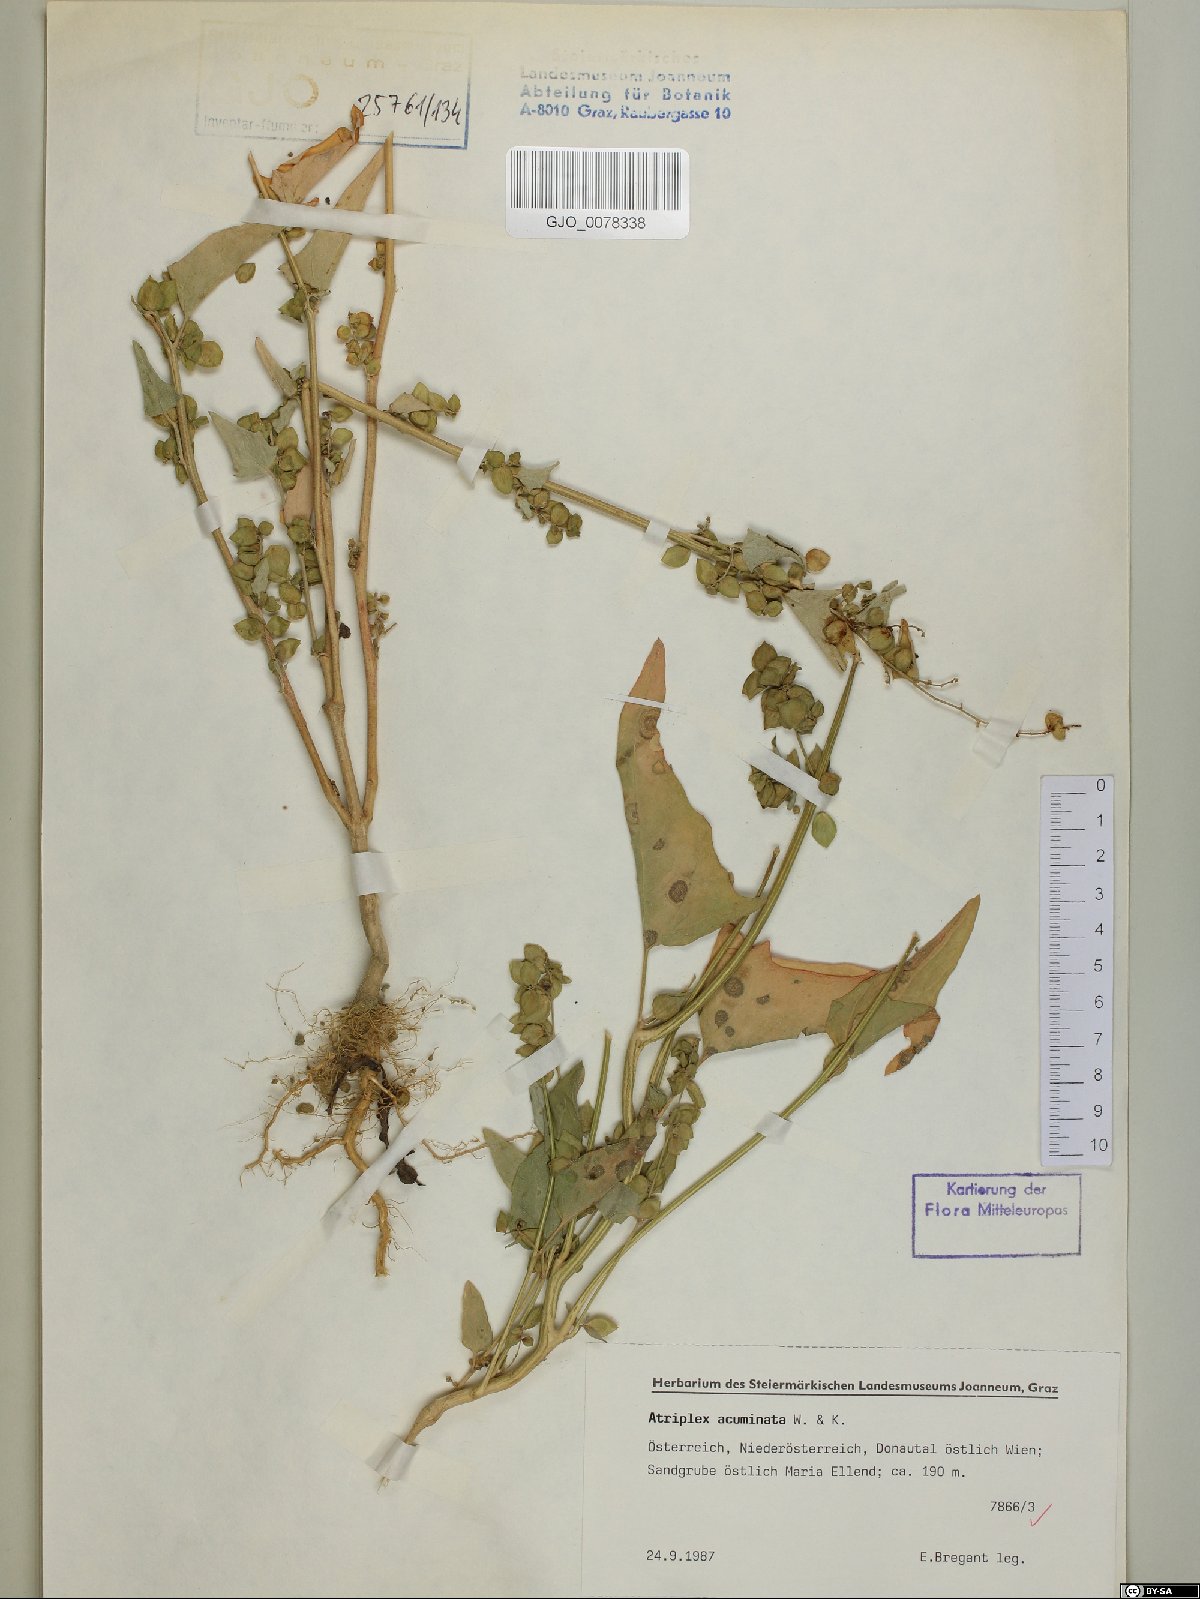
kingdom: Plantae
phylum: Tracheophyta
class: Magnoliopsida
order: Caryophyllales
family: Amaranthaceae
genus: Atriplex
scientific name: Atriplex sagittata
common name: Purple orache
